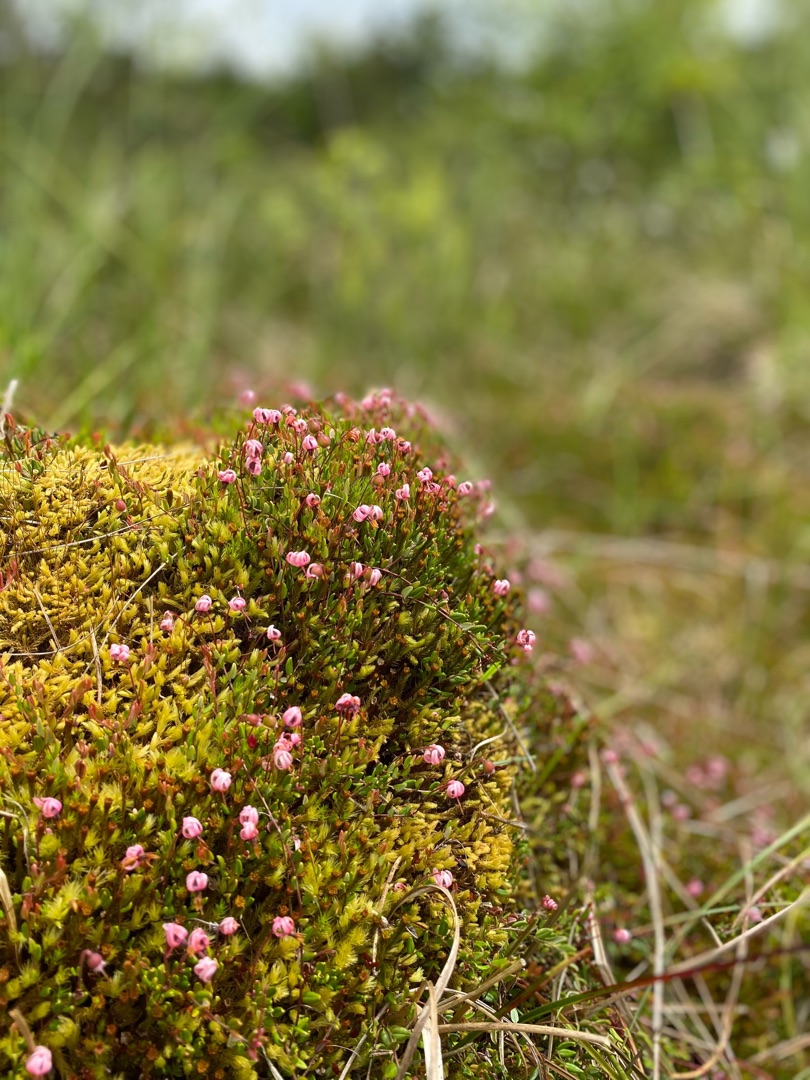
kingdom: Plantae
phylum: Tracheophyta
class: Magnoliopsida
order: Ericales
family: Ericaceae
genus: Vaccinium
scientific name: Vaccinium oxycoccos
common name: Tranebær
